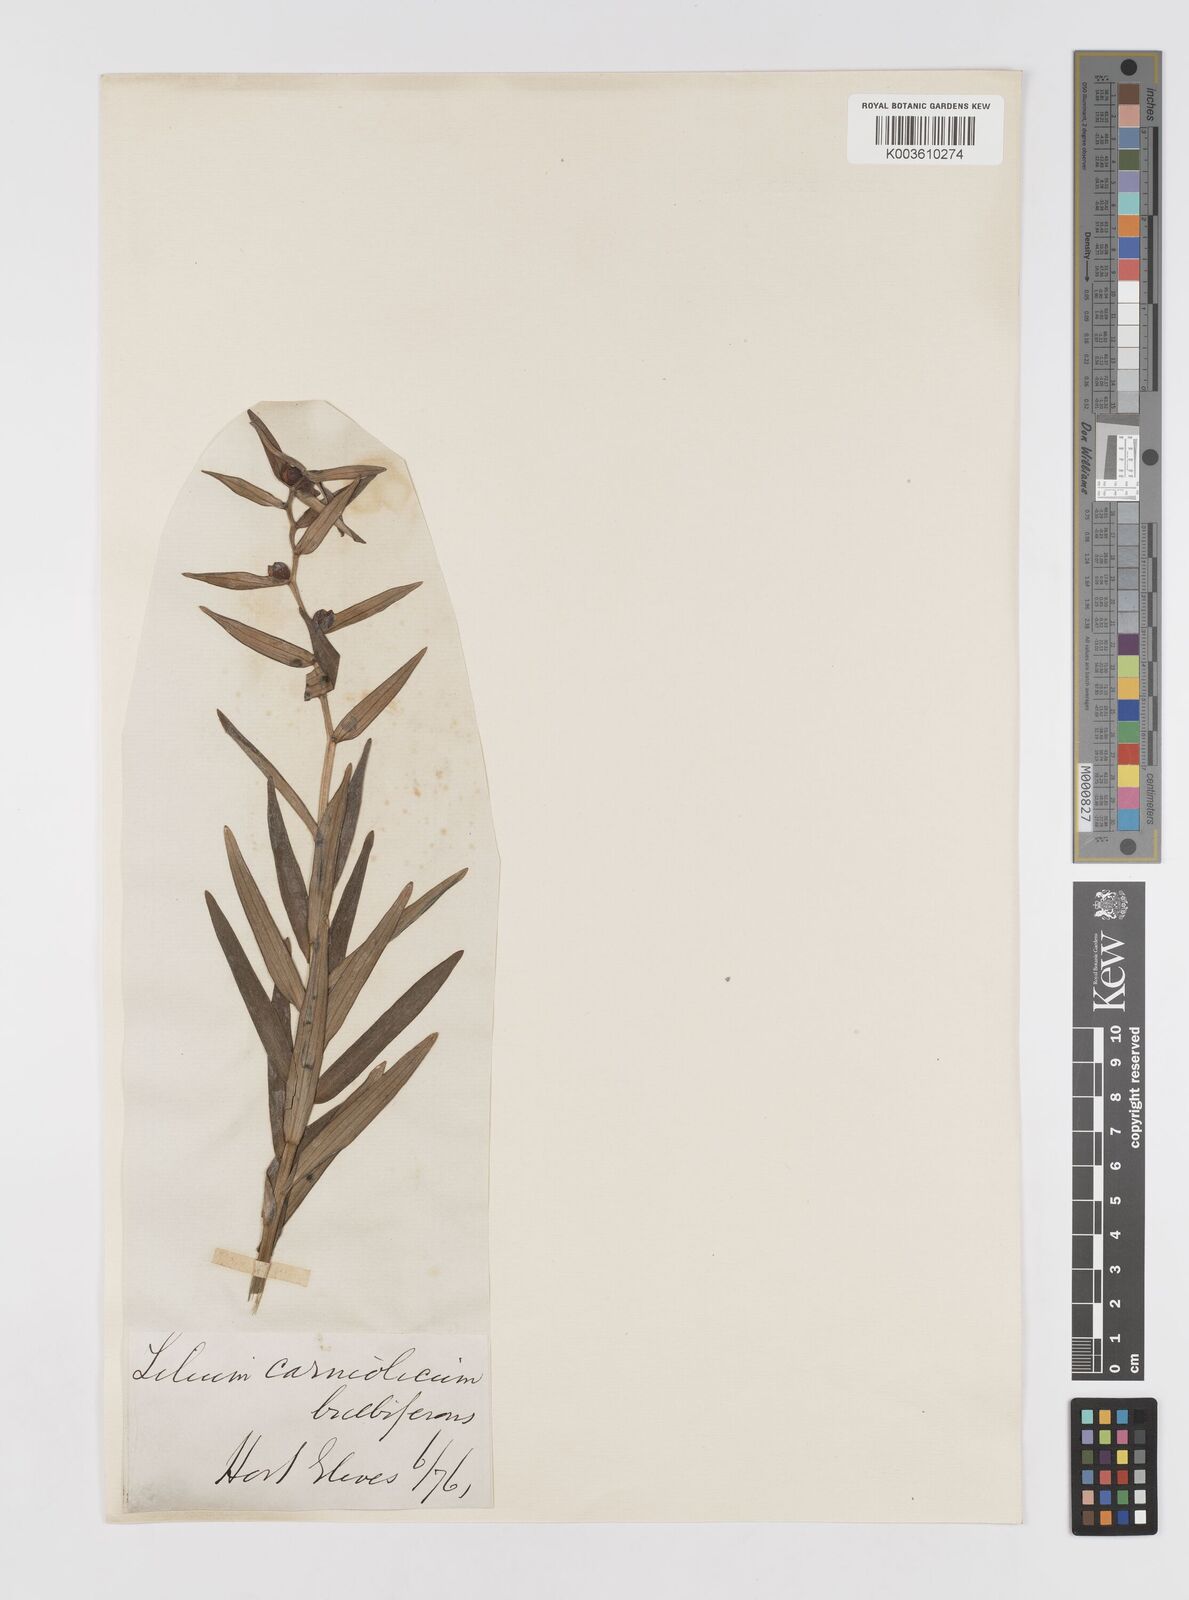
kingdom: Plantae
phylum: Tracheophyta
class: Liliopsida
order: Liliales
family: Liliaceae
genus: Lilium
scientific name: Lilium bulbiferum
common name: Orange lily
